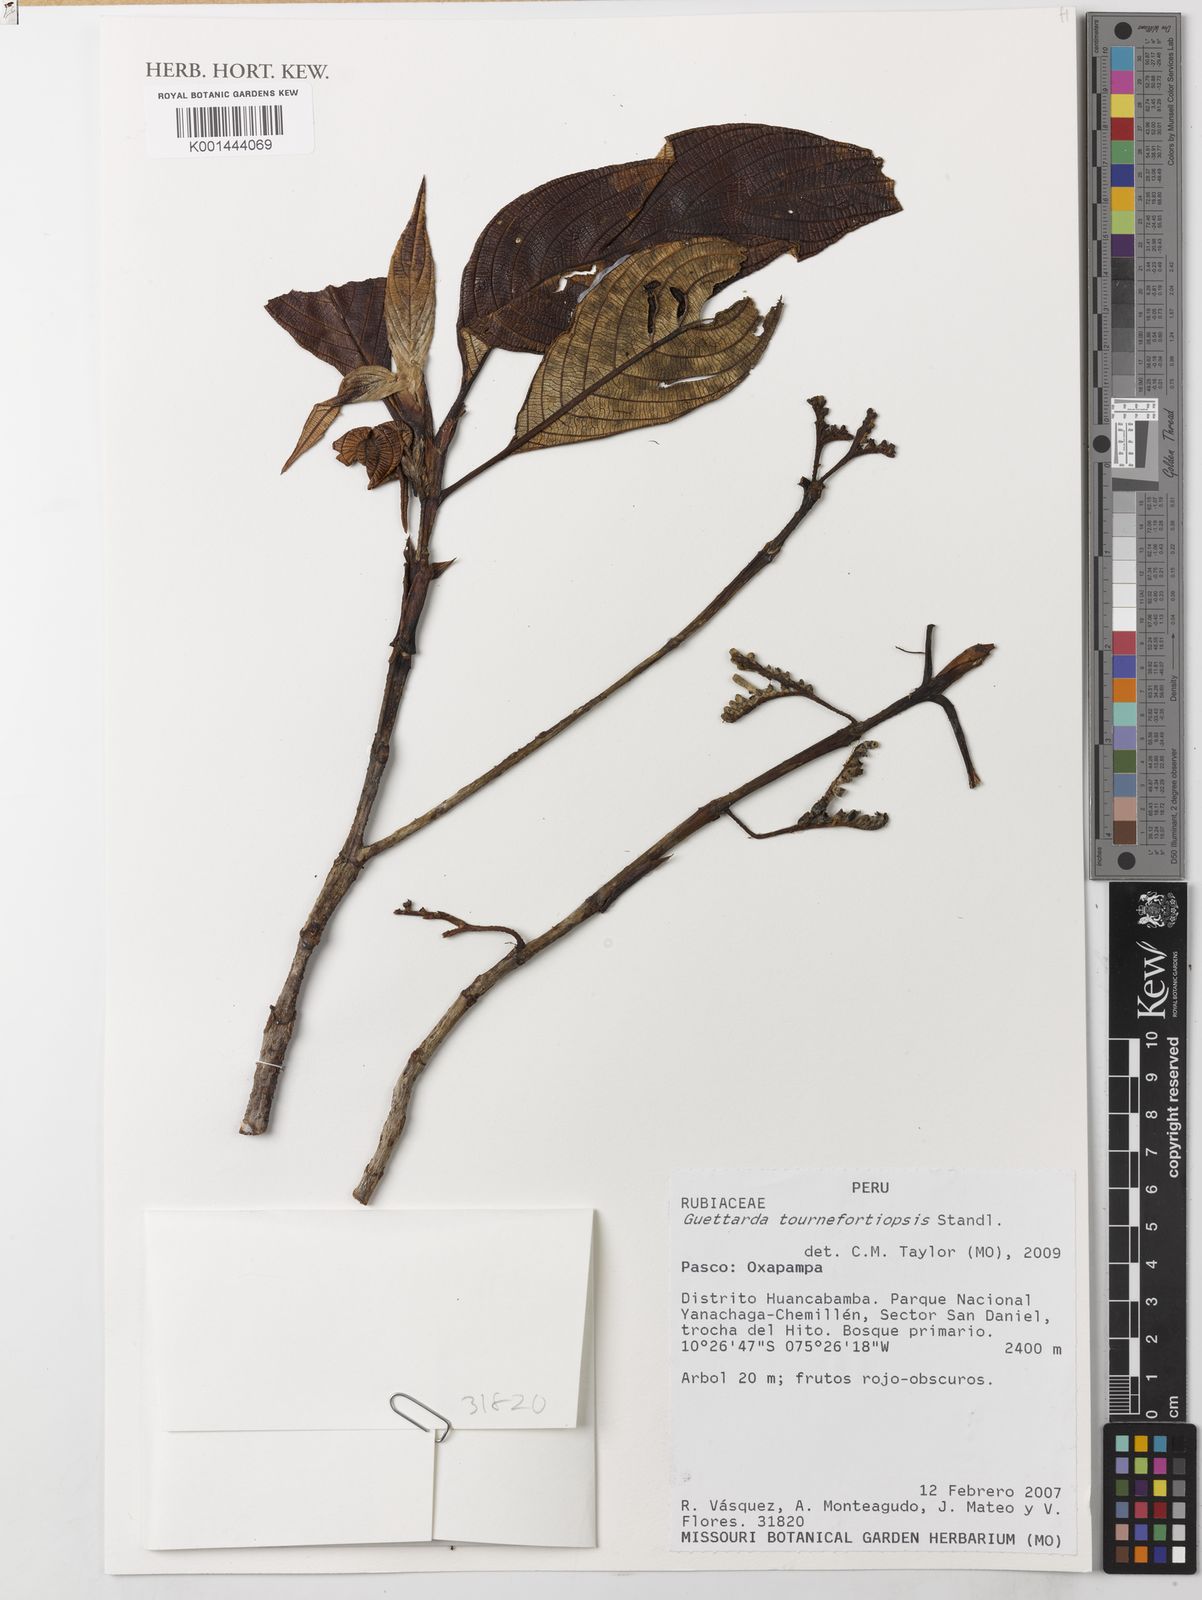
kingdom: Plantae
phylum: Tracheophyta
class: Magnoliopsida
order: Gentianales
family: Rubiaceae
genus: Tournefortiopsis
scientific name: Tournefortiopsis reticulata
